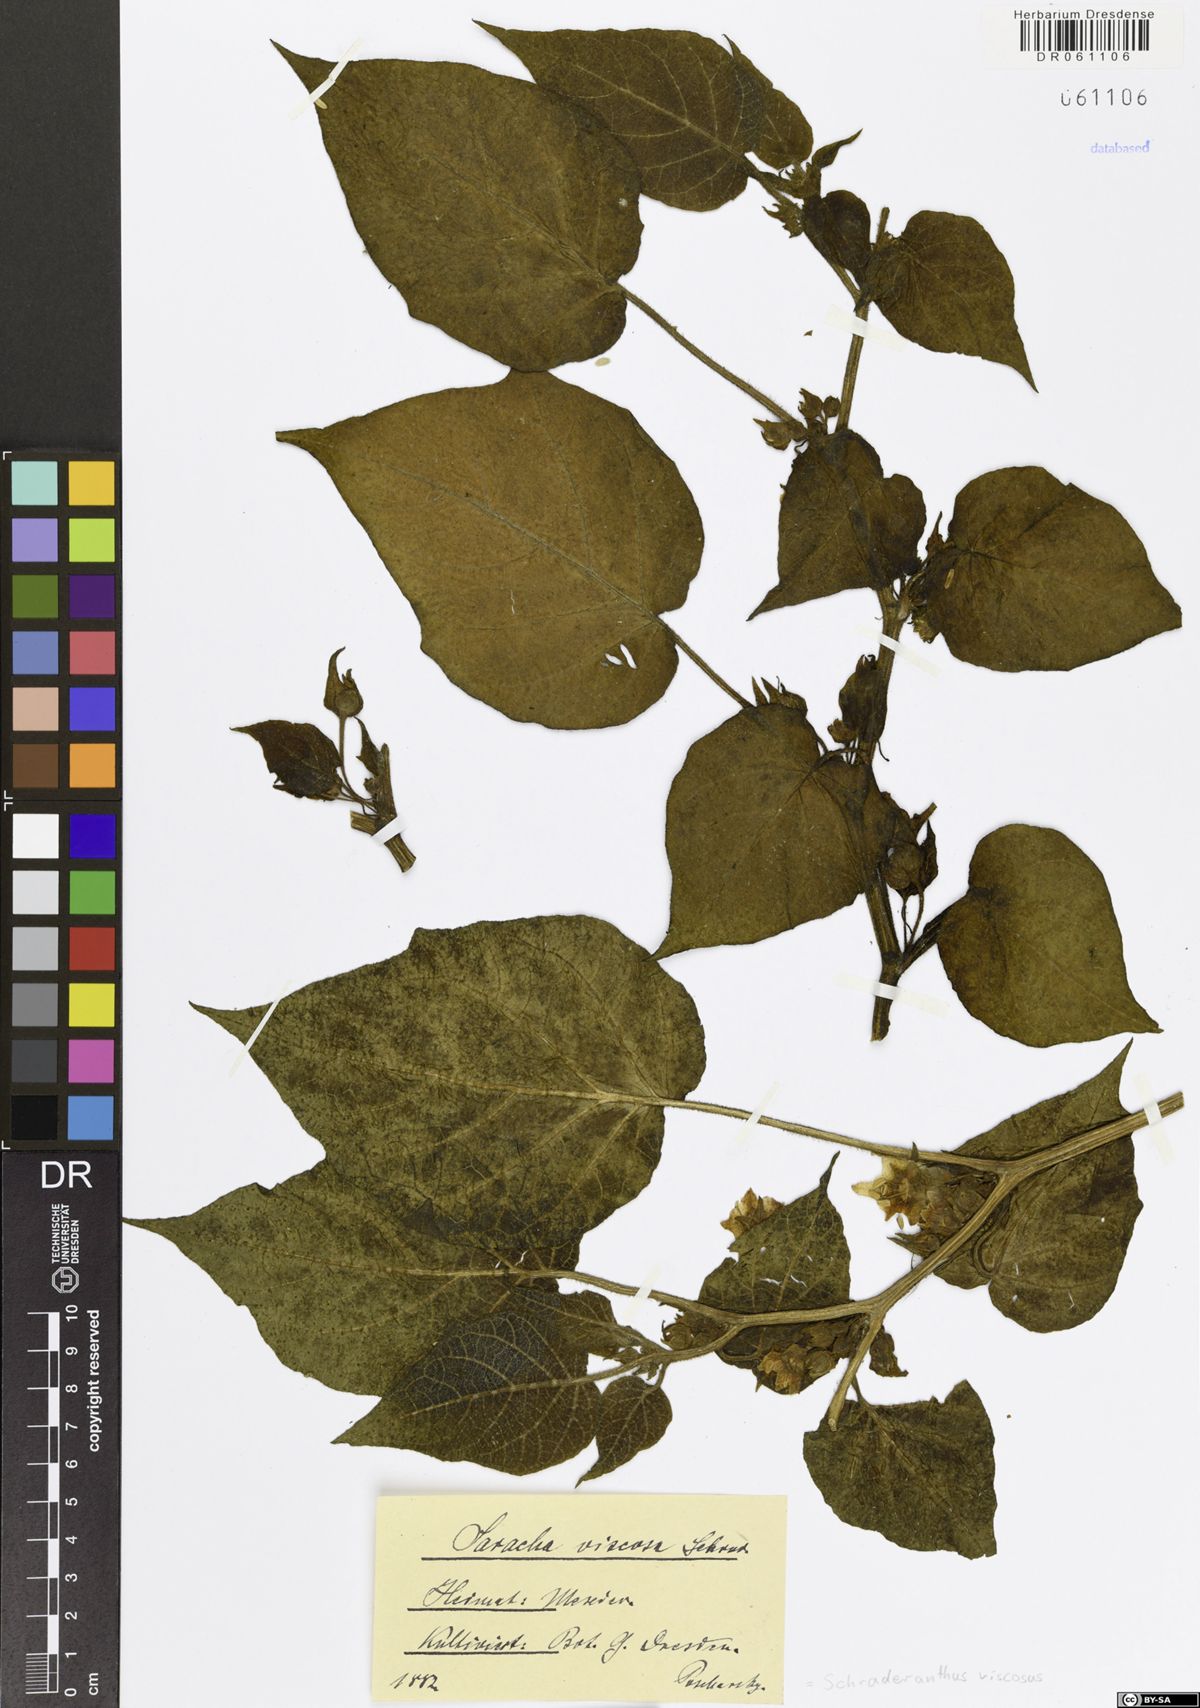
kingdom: Plantae
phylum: Tracheophyta
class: Magnoliopsida
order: Solanales
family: Solanaceae
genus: Schraderanthus
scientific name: Schraderanthus viscosus
